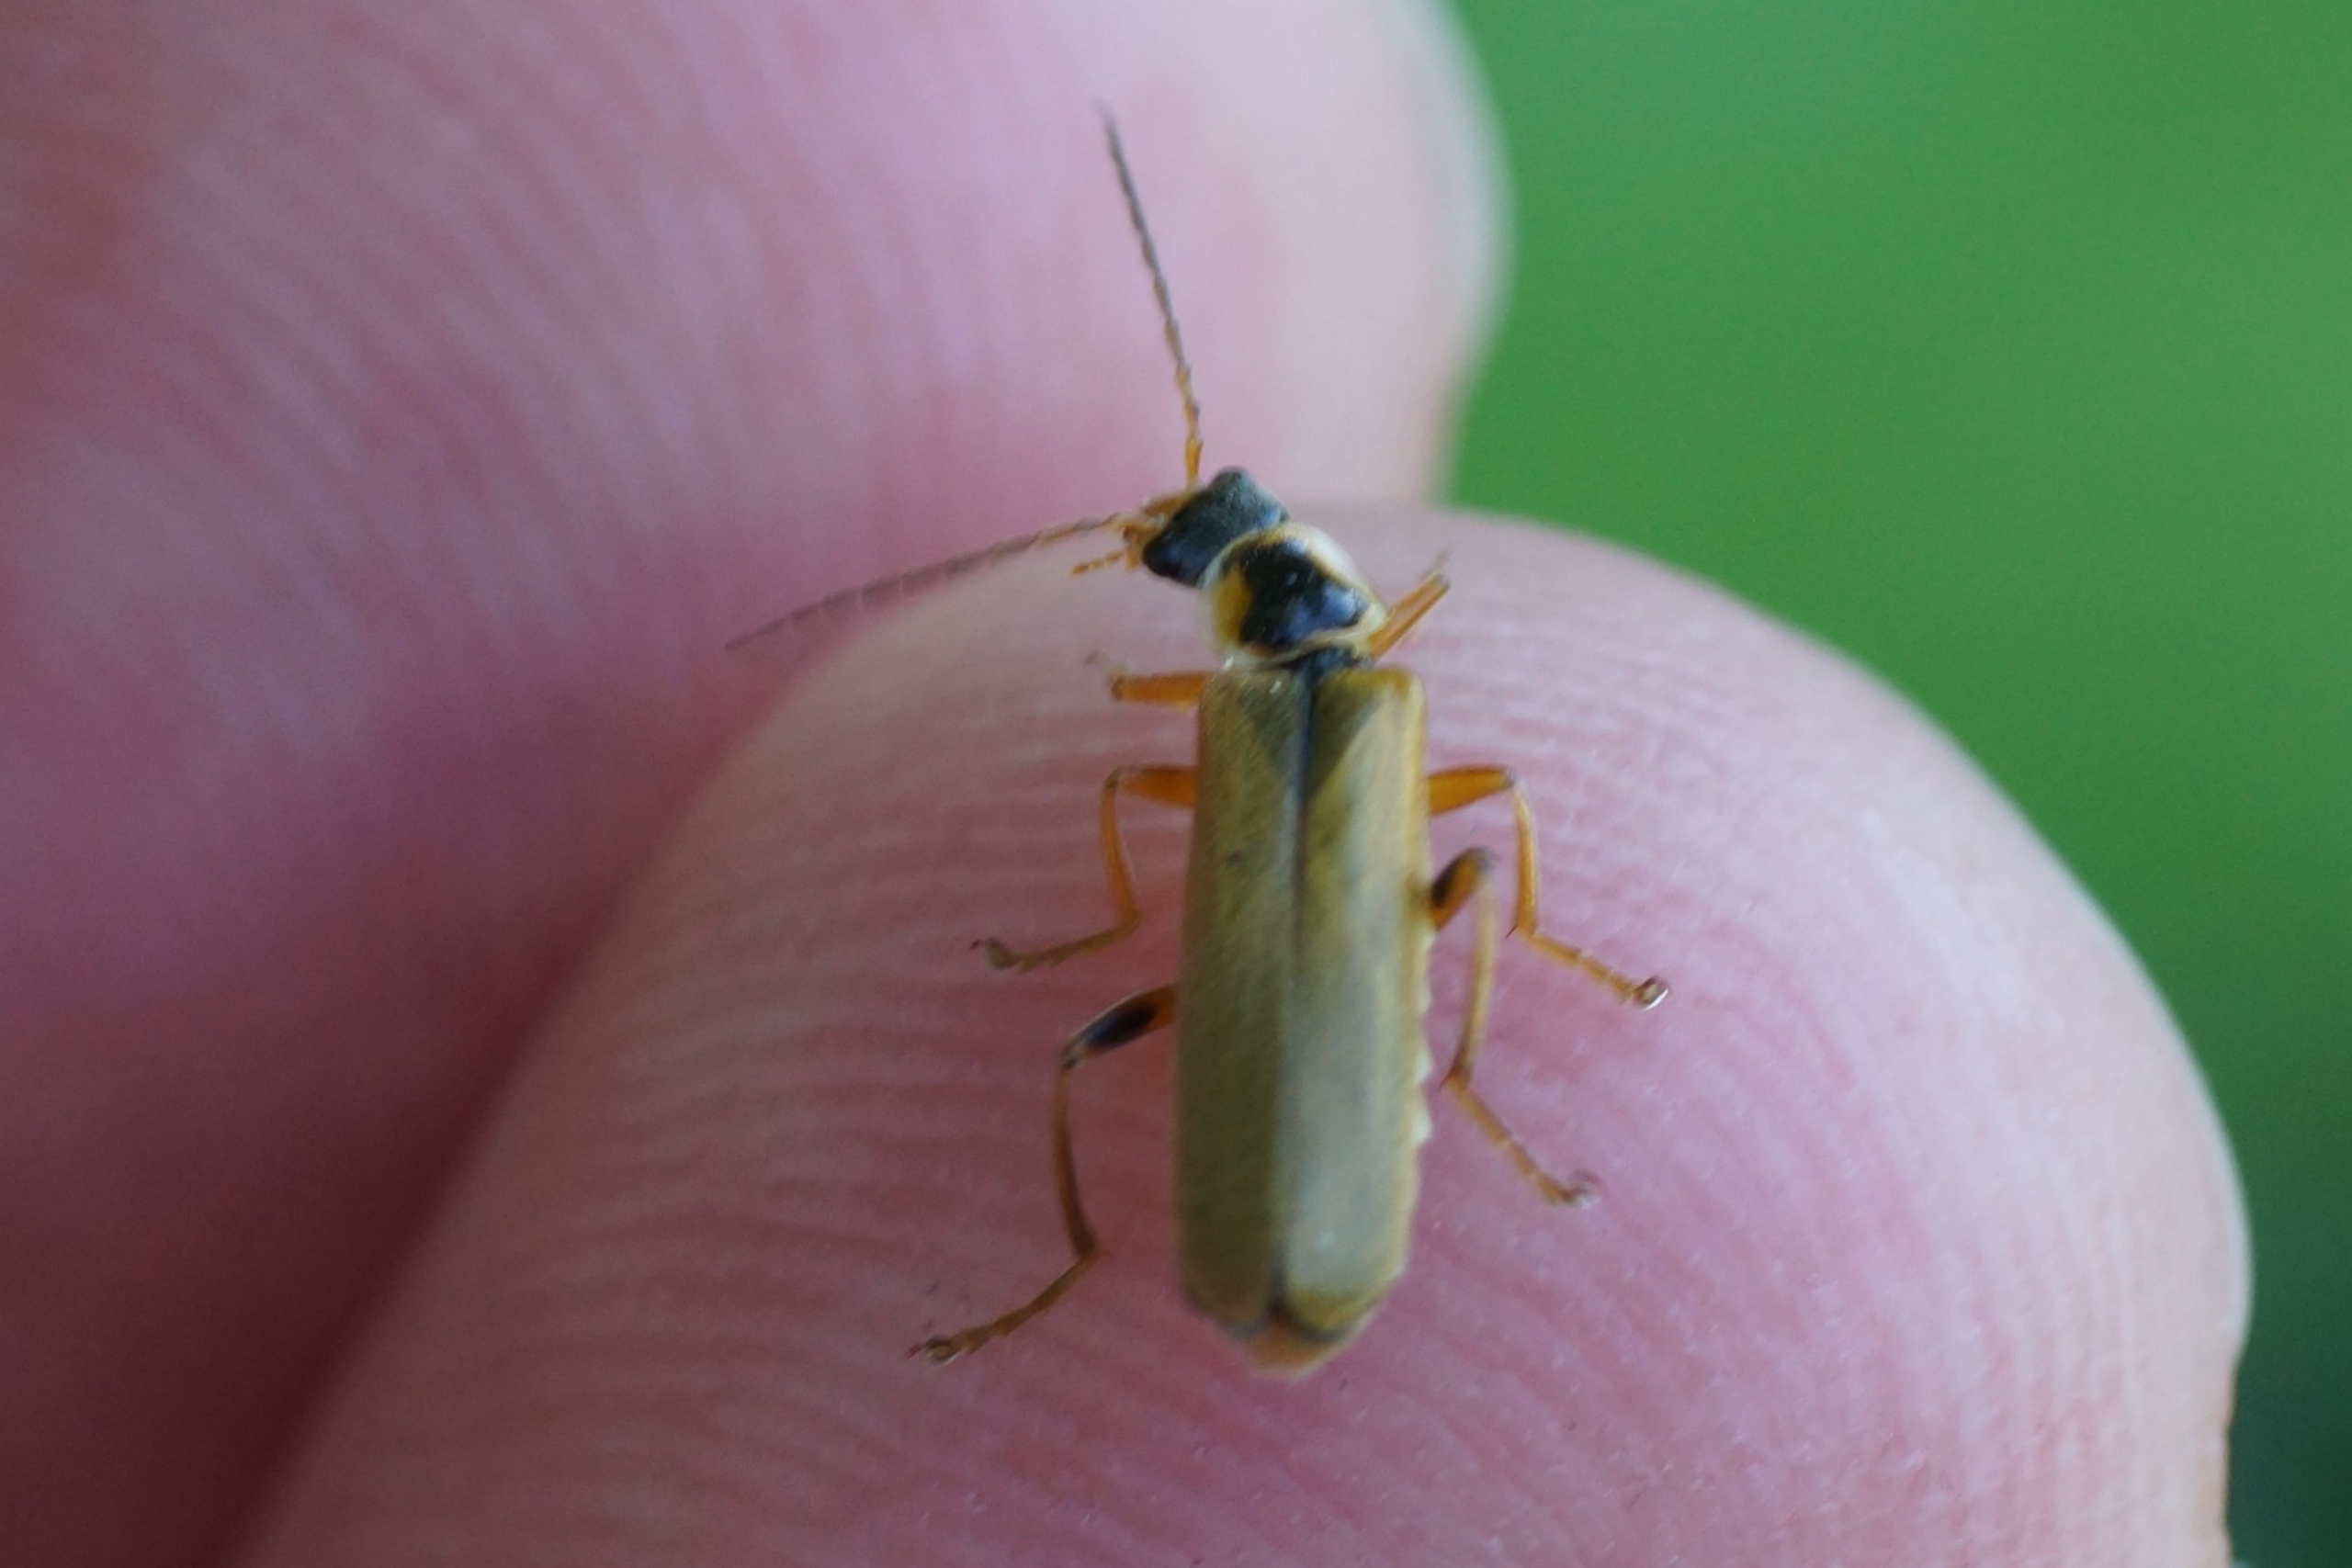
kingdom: Animalia
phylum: Arthropoda
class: Insecta
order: Coleoptera
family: Cantharidae
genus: Cantharis
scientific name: Cantharis decipiens
